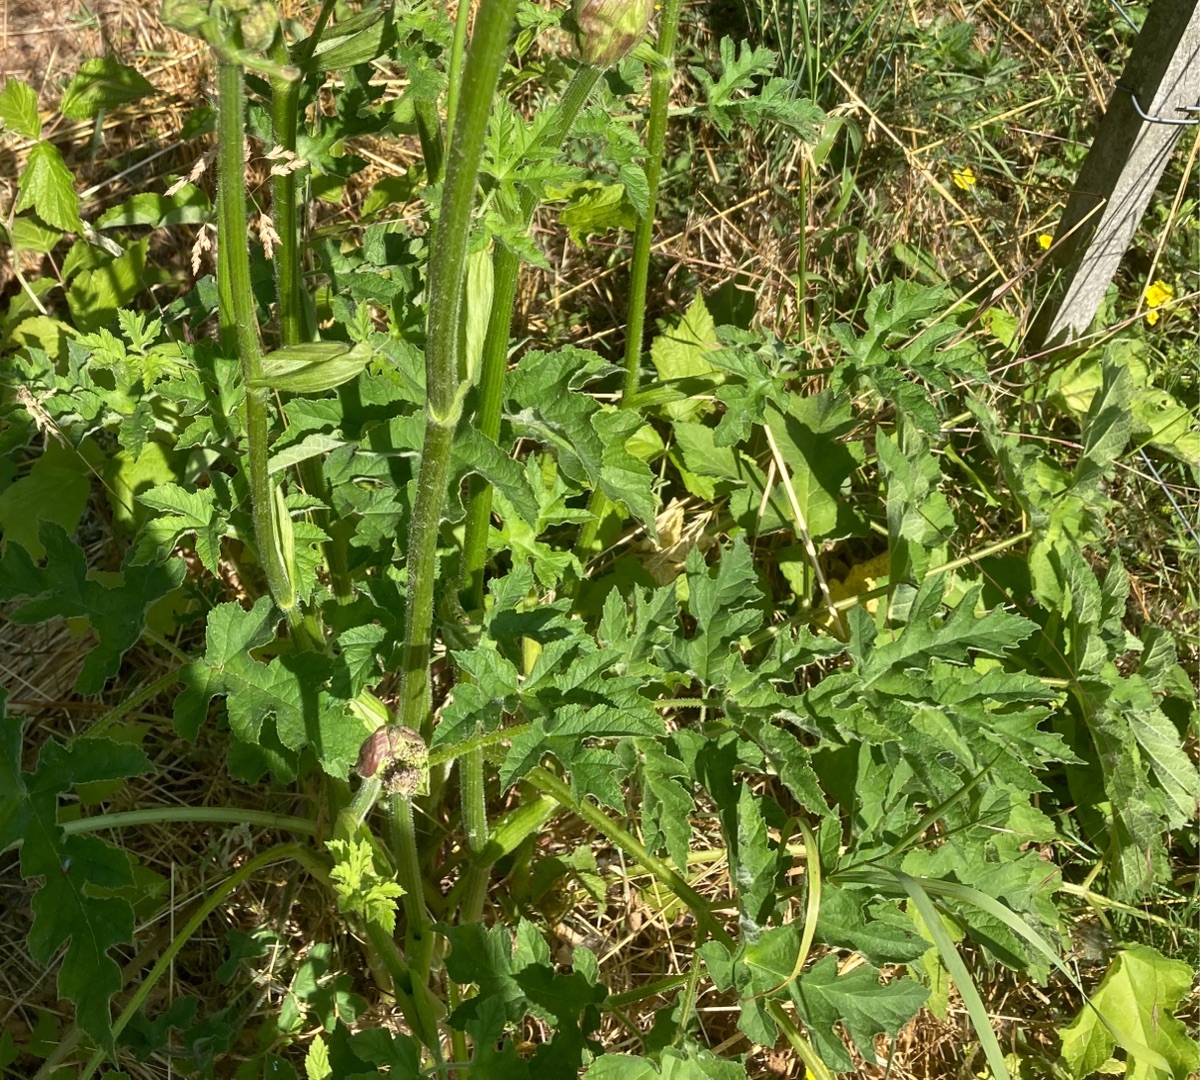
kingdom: Plantae
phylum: Tracheophyta
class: Magnoliopsida
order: Apiales
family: Apiaceae
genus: Heracleum
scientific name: Heracleum sphondylium
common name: Almindelig bjørneklo
